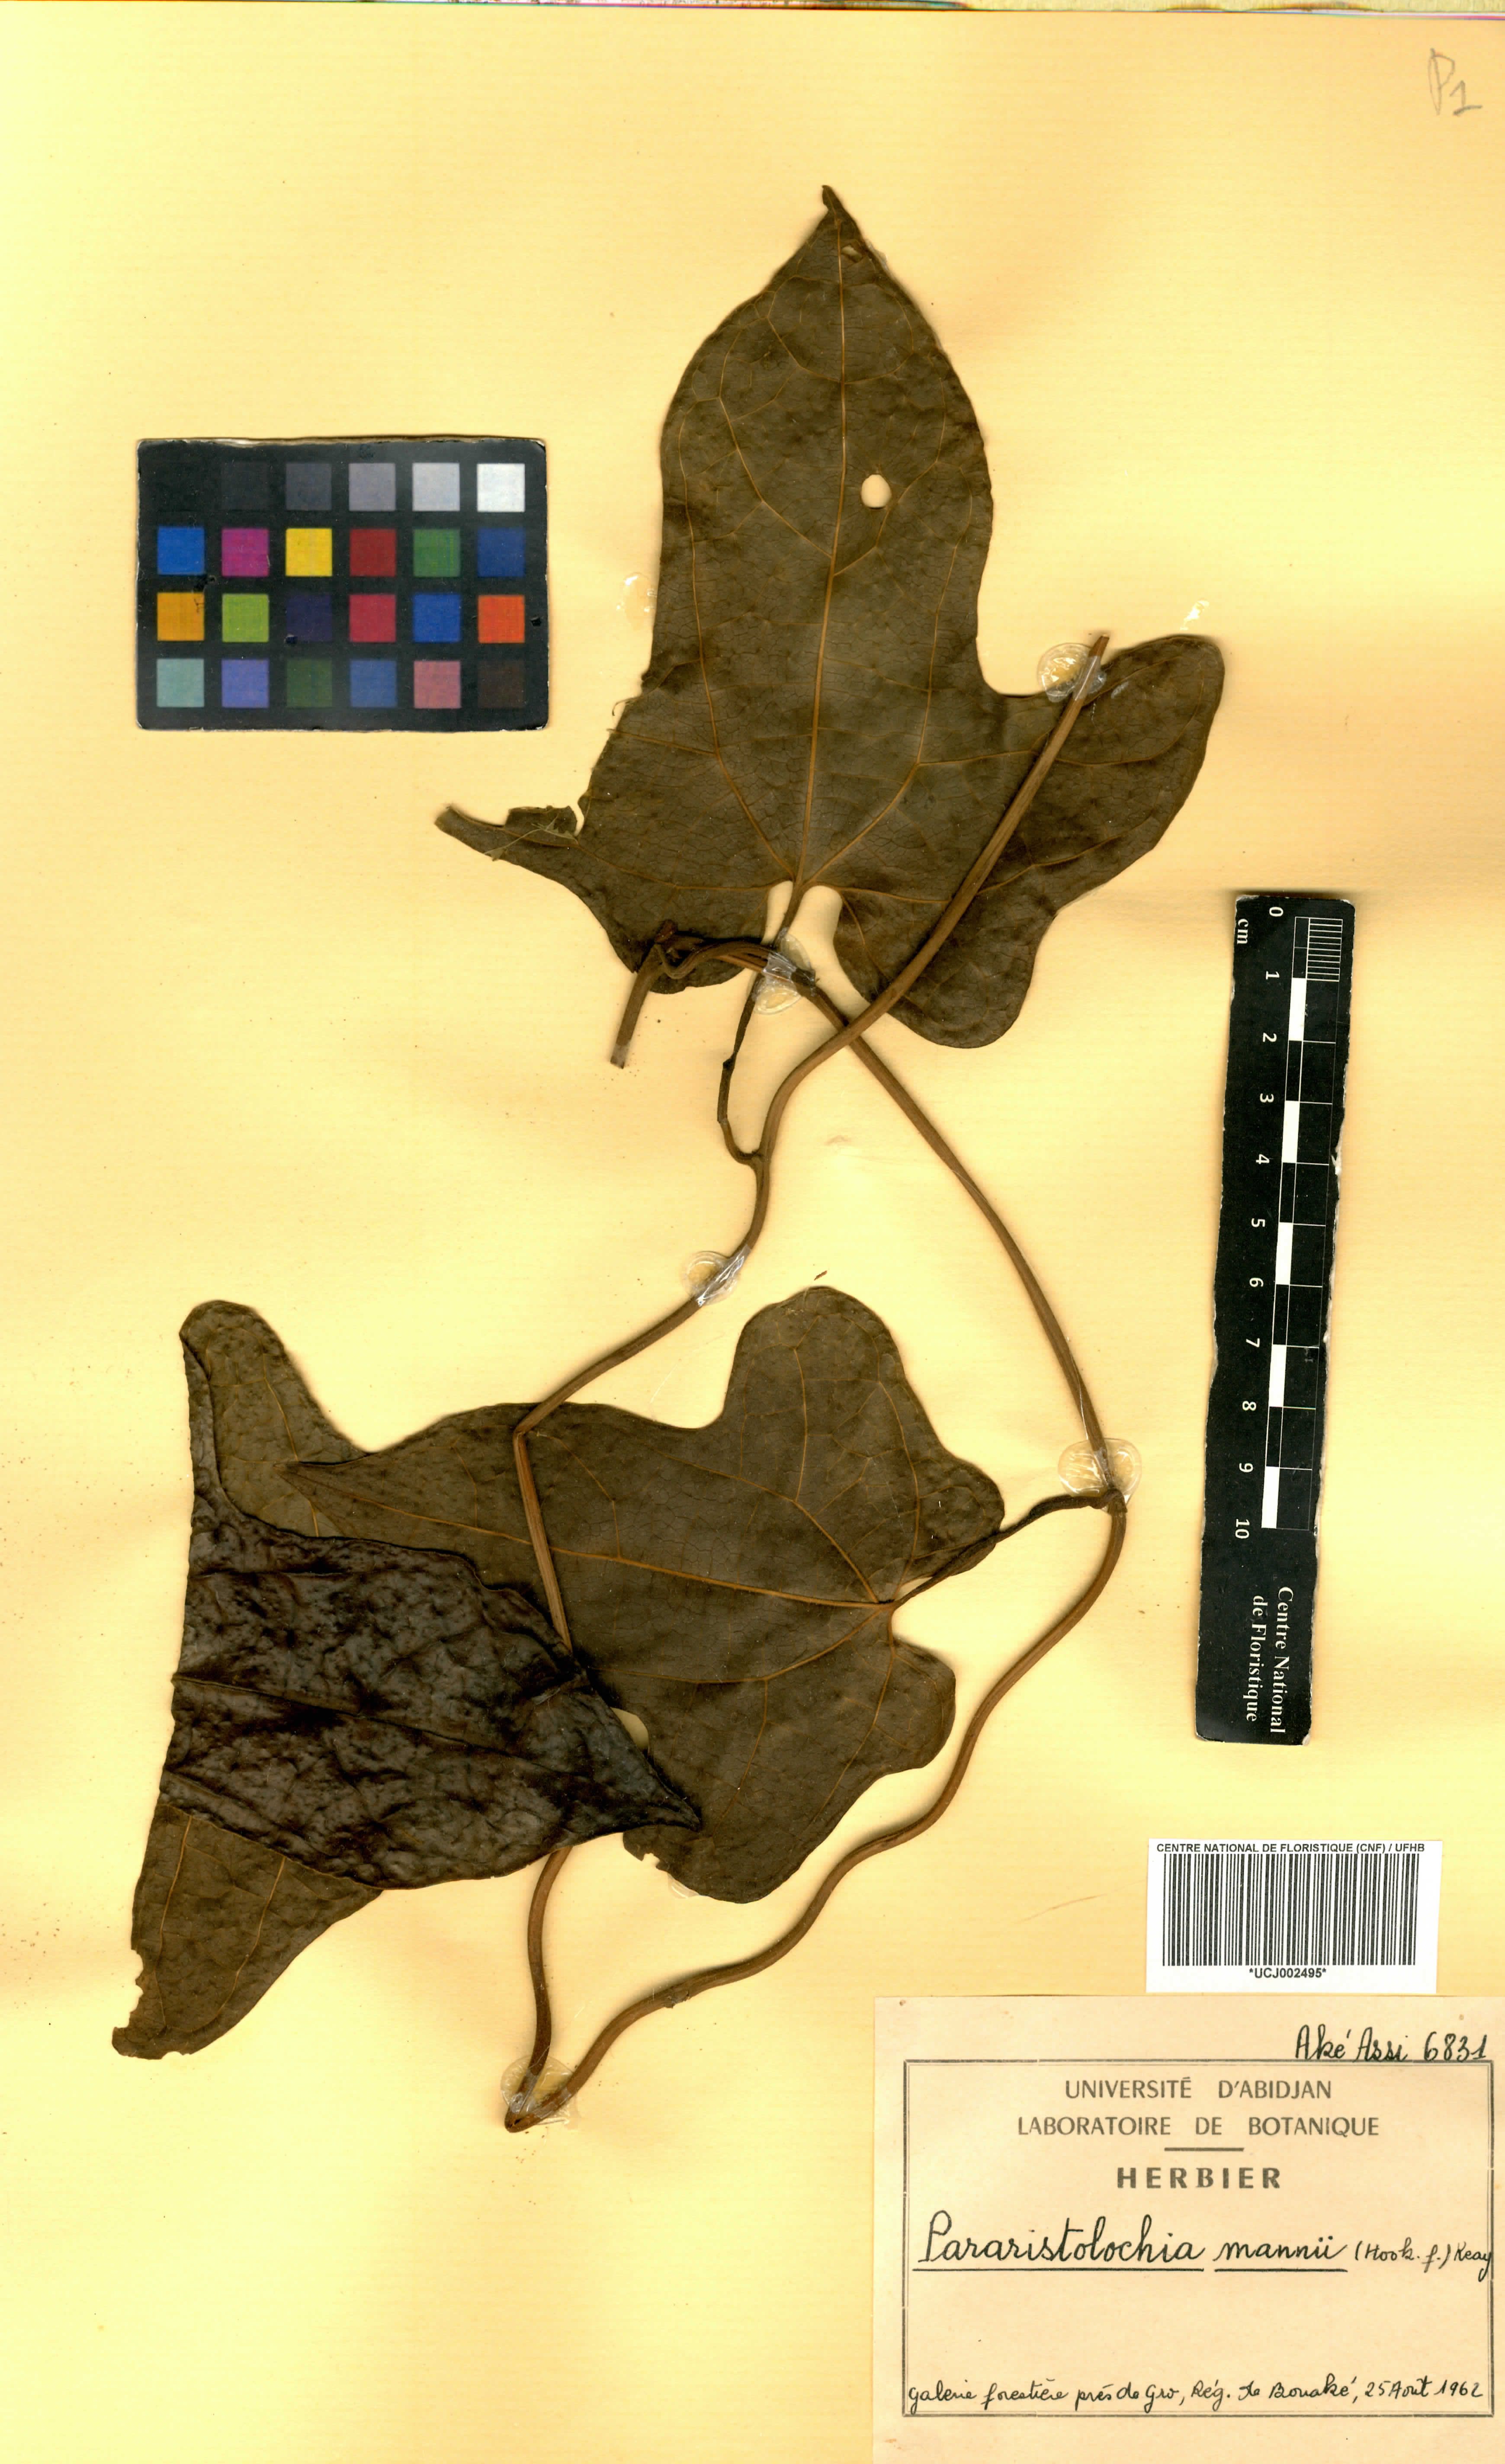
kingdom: Plantae
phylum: Tracheophyta
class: Magnoliopsida
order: Piperales
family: Aristolochiaceae
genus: Aristolochia
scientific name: Aristolochia mannii
